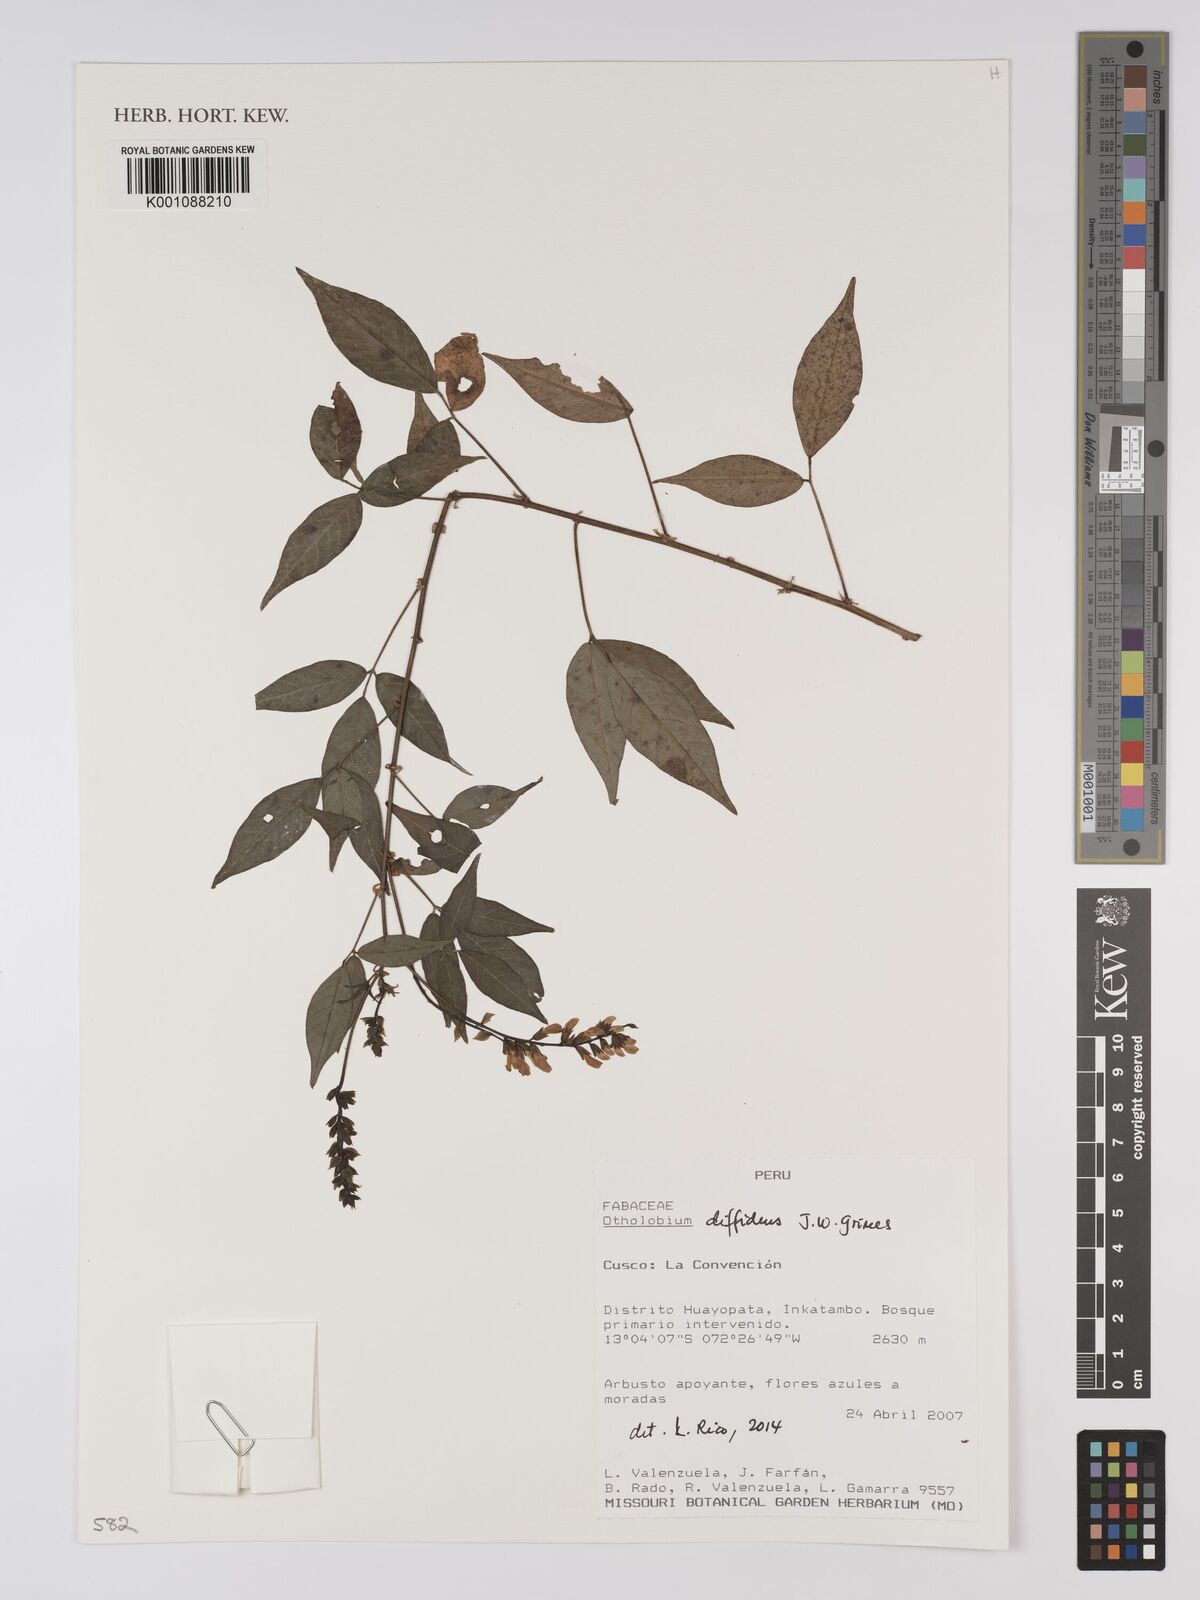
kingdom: Plantae
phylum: Tracheophyta
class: Magnoliopsida
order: Fabales
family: Fabaceae
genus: Psoralea
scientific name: Psoralea Otholobium diffidens
